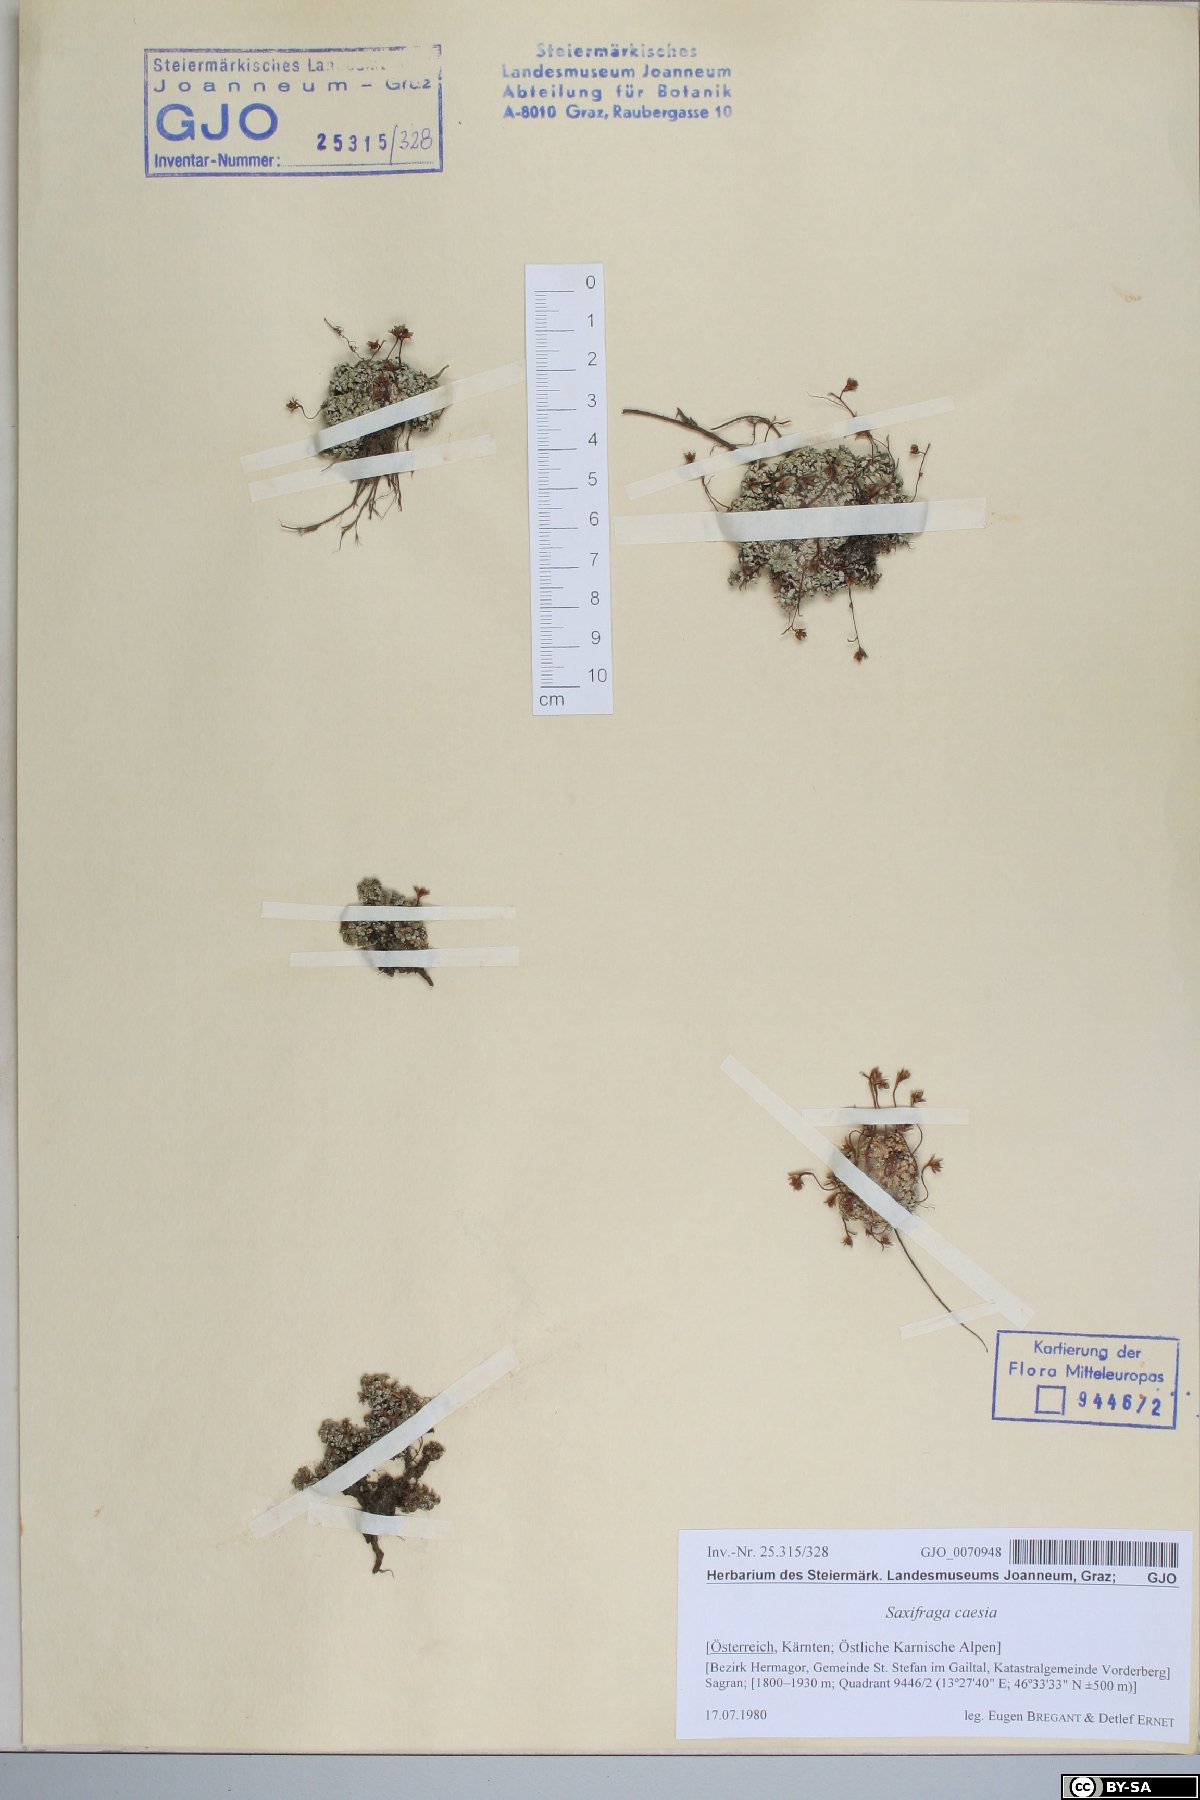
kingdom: Plantae
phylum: Tracheophyta
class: Magnoliopsida
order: Saxifragales
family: Saxifragaceae
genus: Saxifraga
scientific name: Saxifraga caesia
